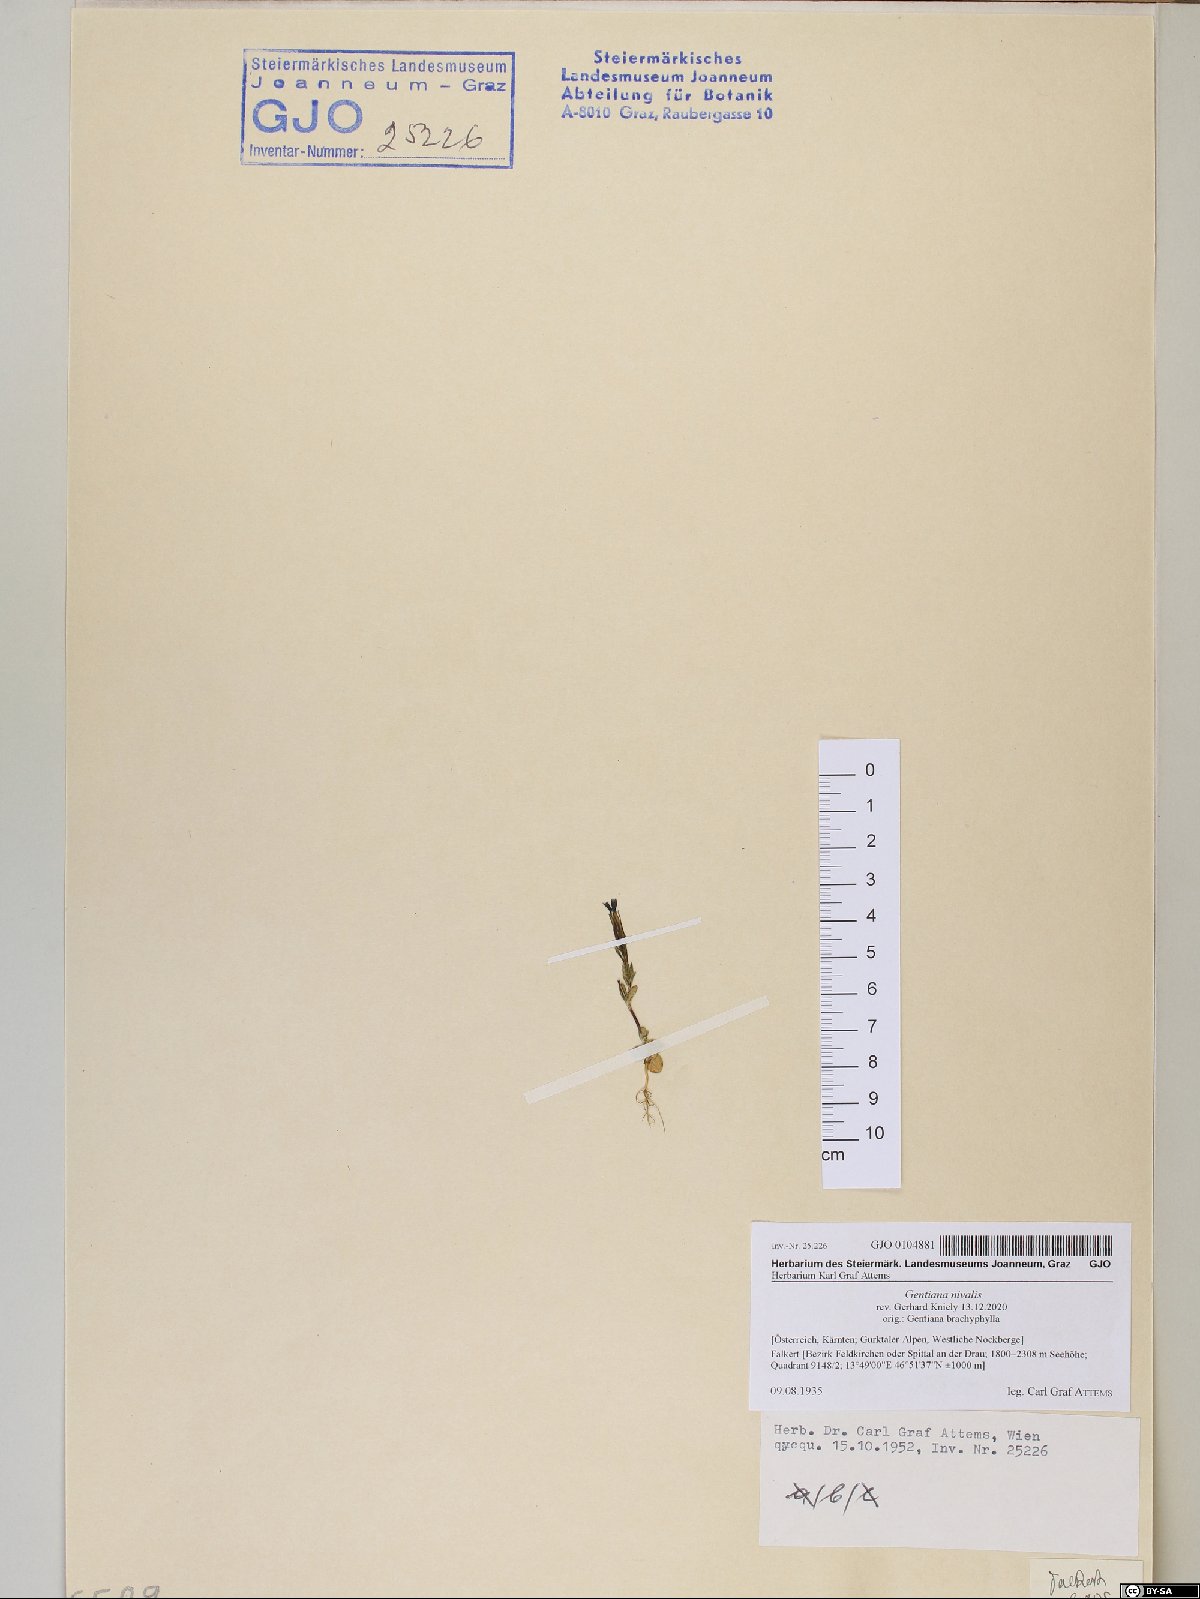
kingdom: Plantae
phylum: Tracheophyta
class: Magnoliopsida
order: Gentianales
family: Gentianaceae
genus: Gentiana
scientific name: Gentiana nivalis
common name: Alpine gentian
